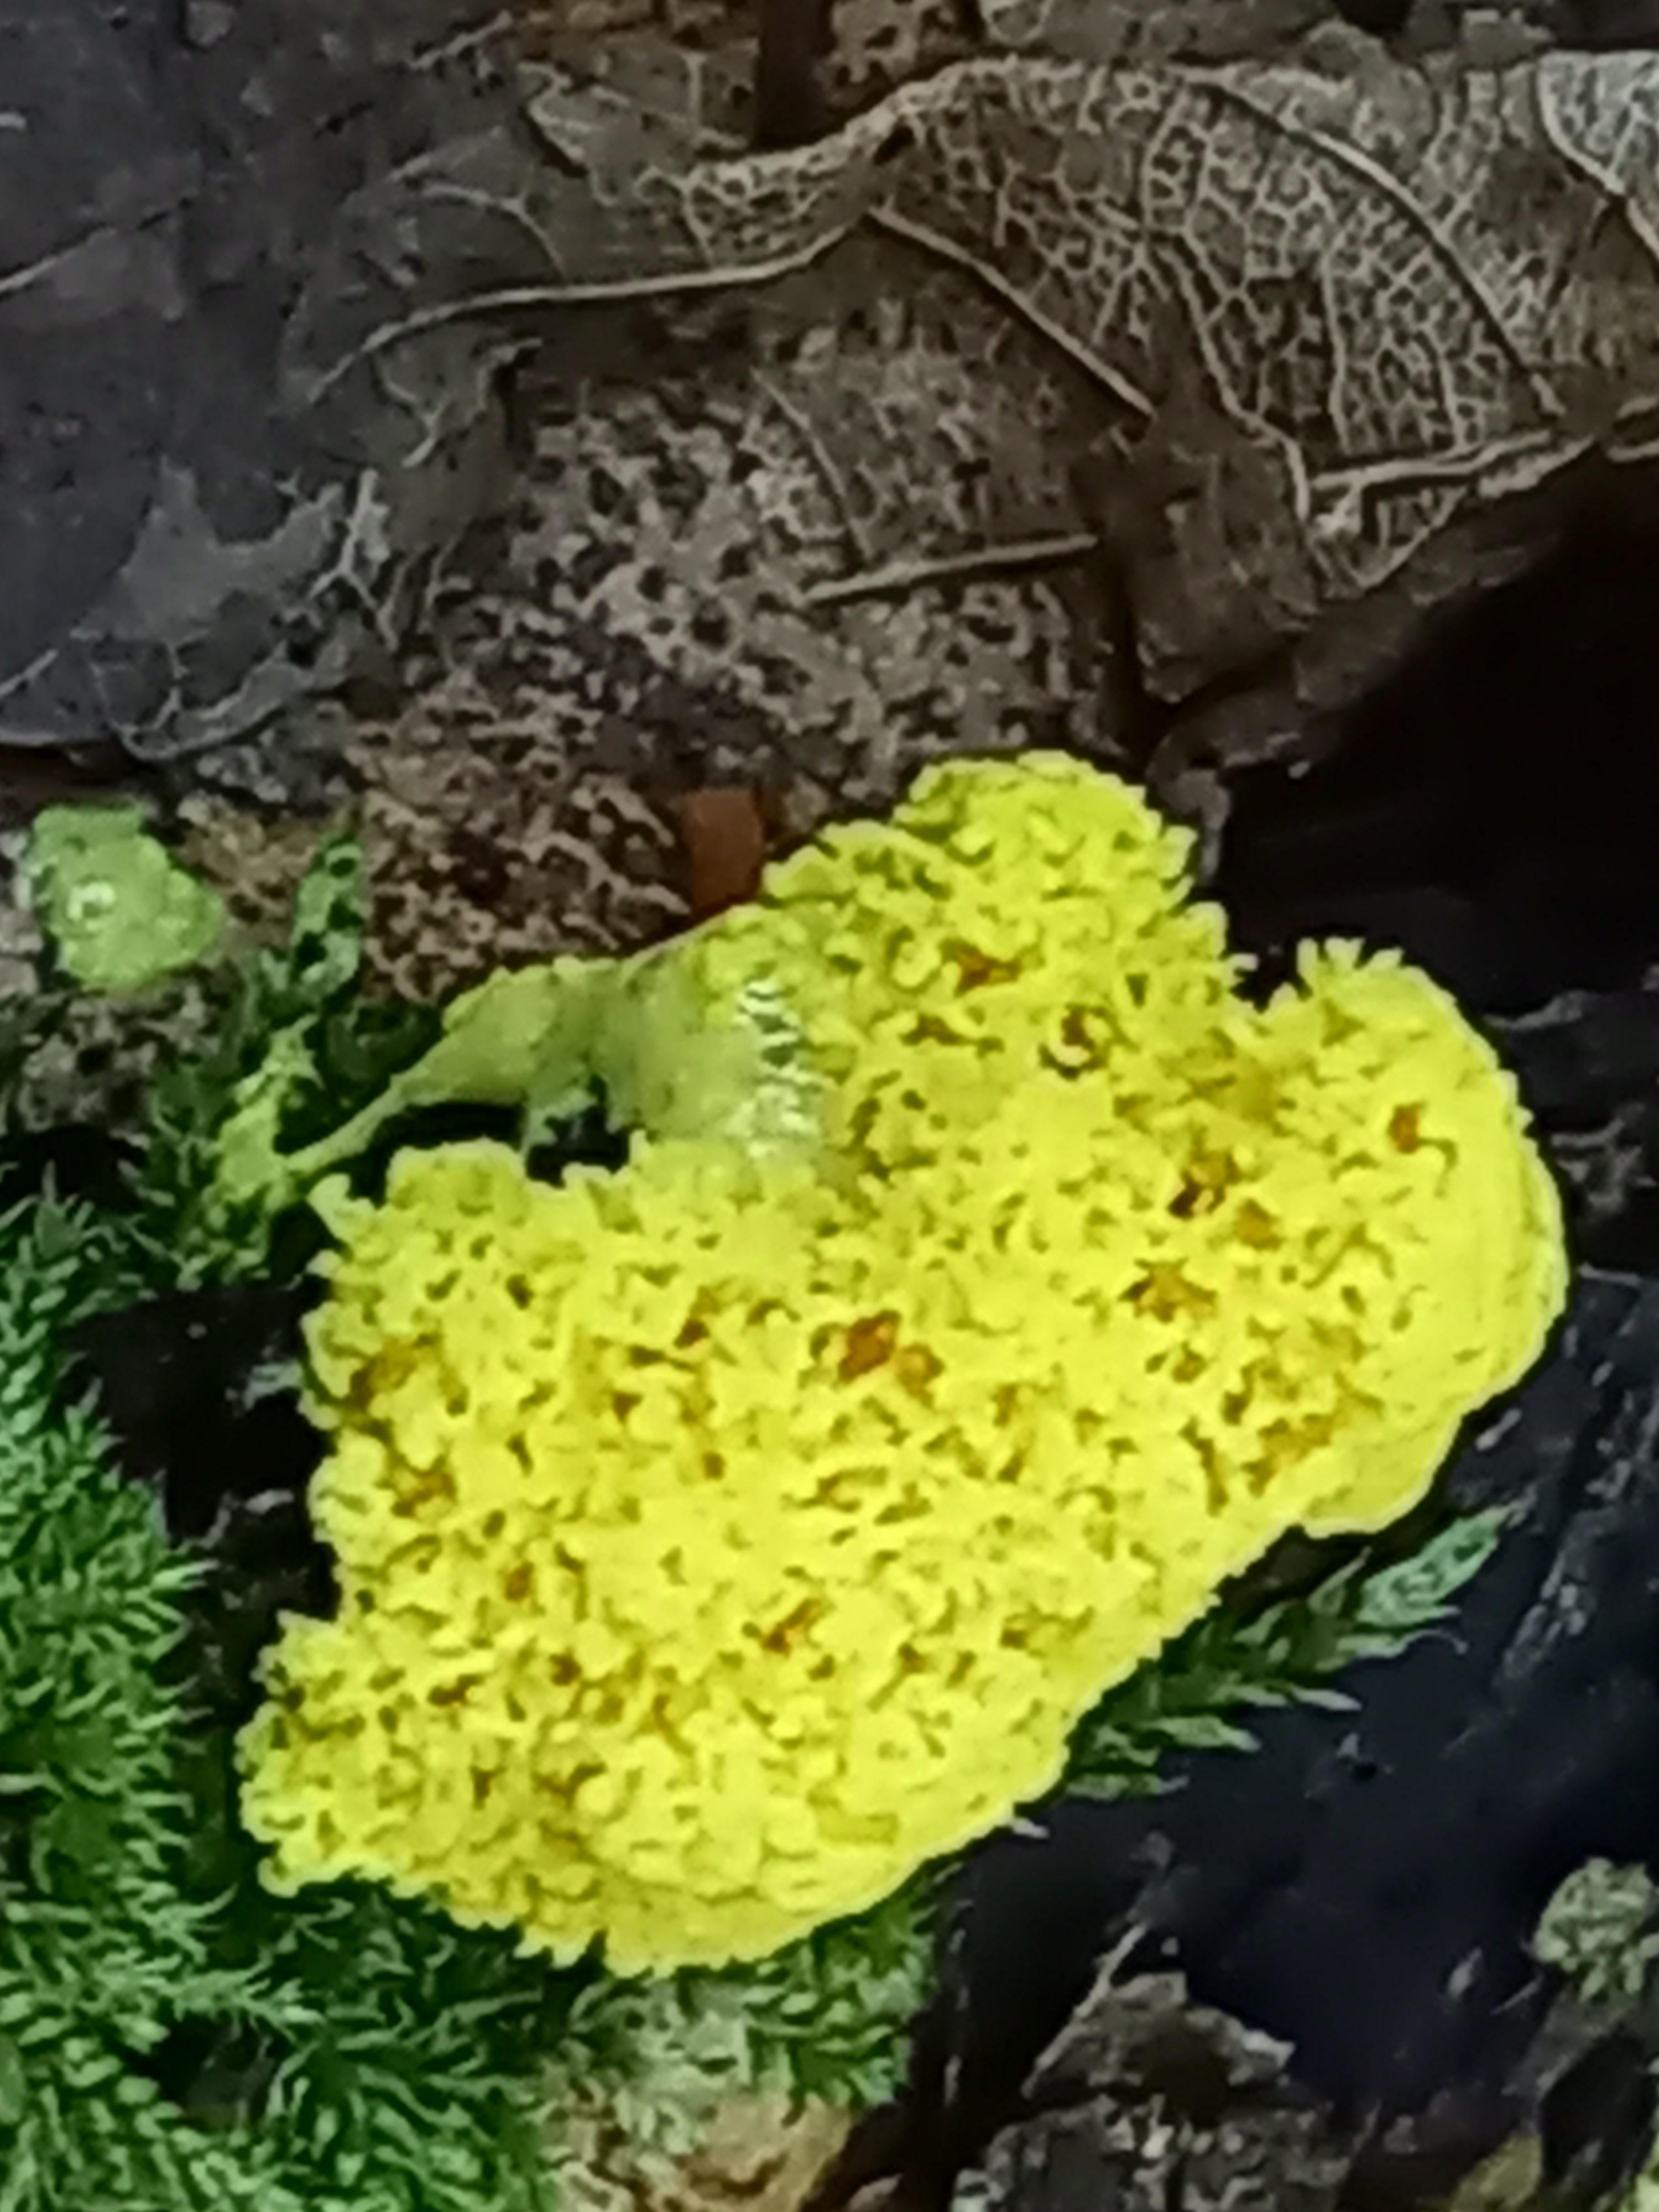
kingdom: Protozoa
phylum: Mycetozoa
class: Myxomycetes
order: Physarales
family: Physaraceae
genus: Fuligo
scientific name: Fuligo septica
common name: gul troldsmør
